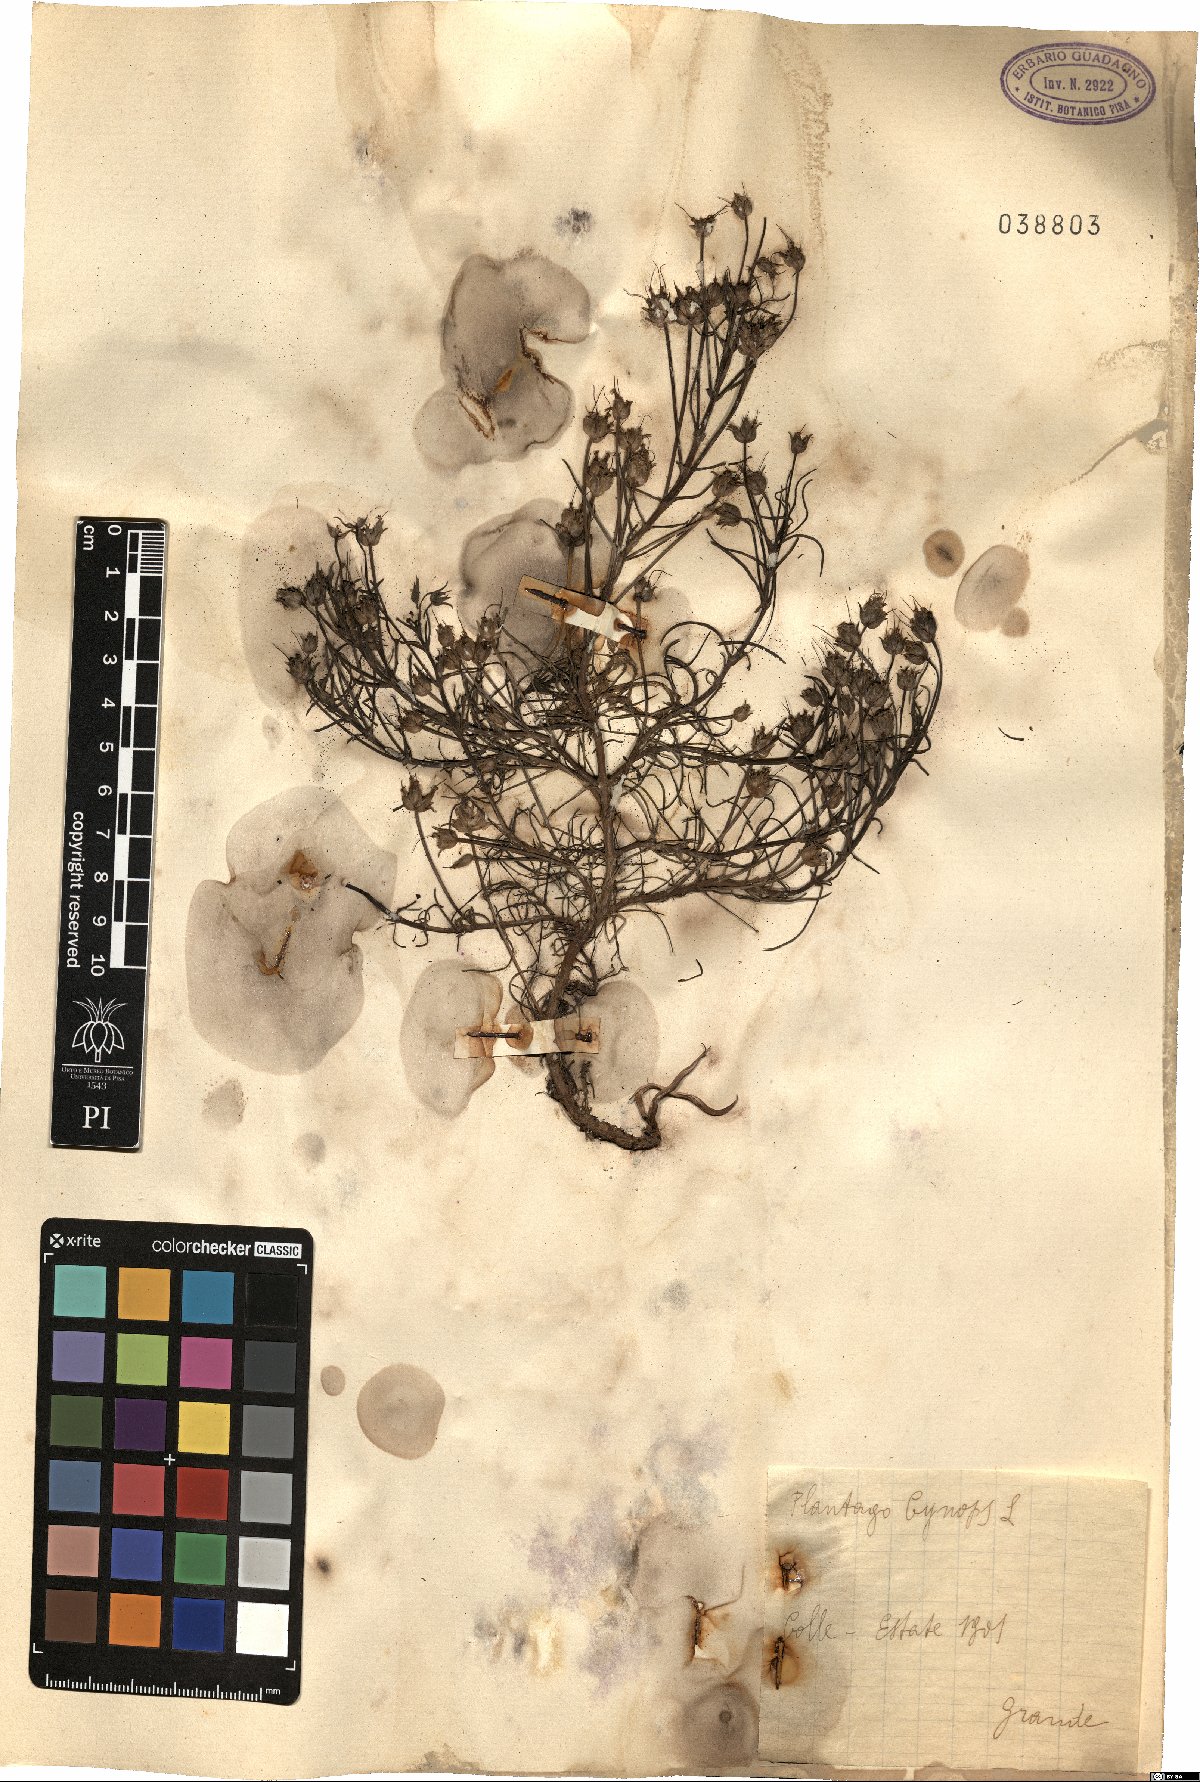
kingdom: Plantae
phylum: Tracheophyta
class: Magnoliopsida
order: Lamiales
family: Plantaginaceae
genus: Plantago
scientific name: Plantago sempervirens
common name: Shrubby plantain
